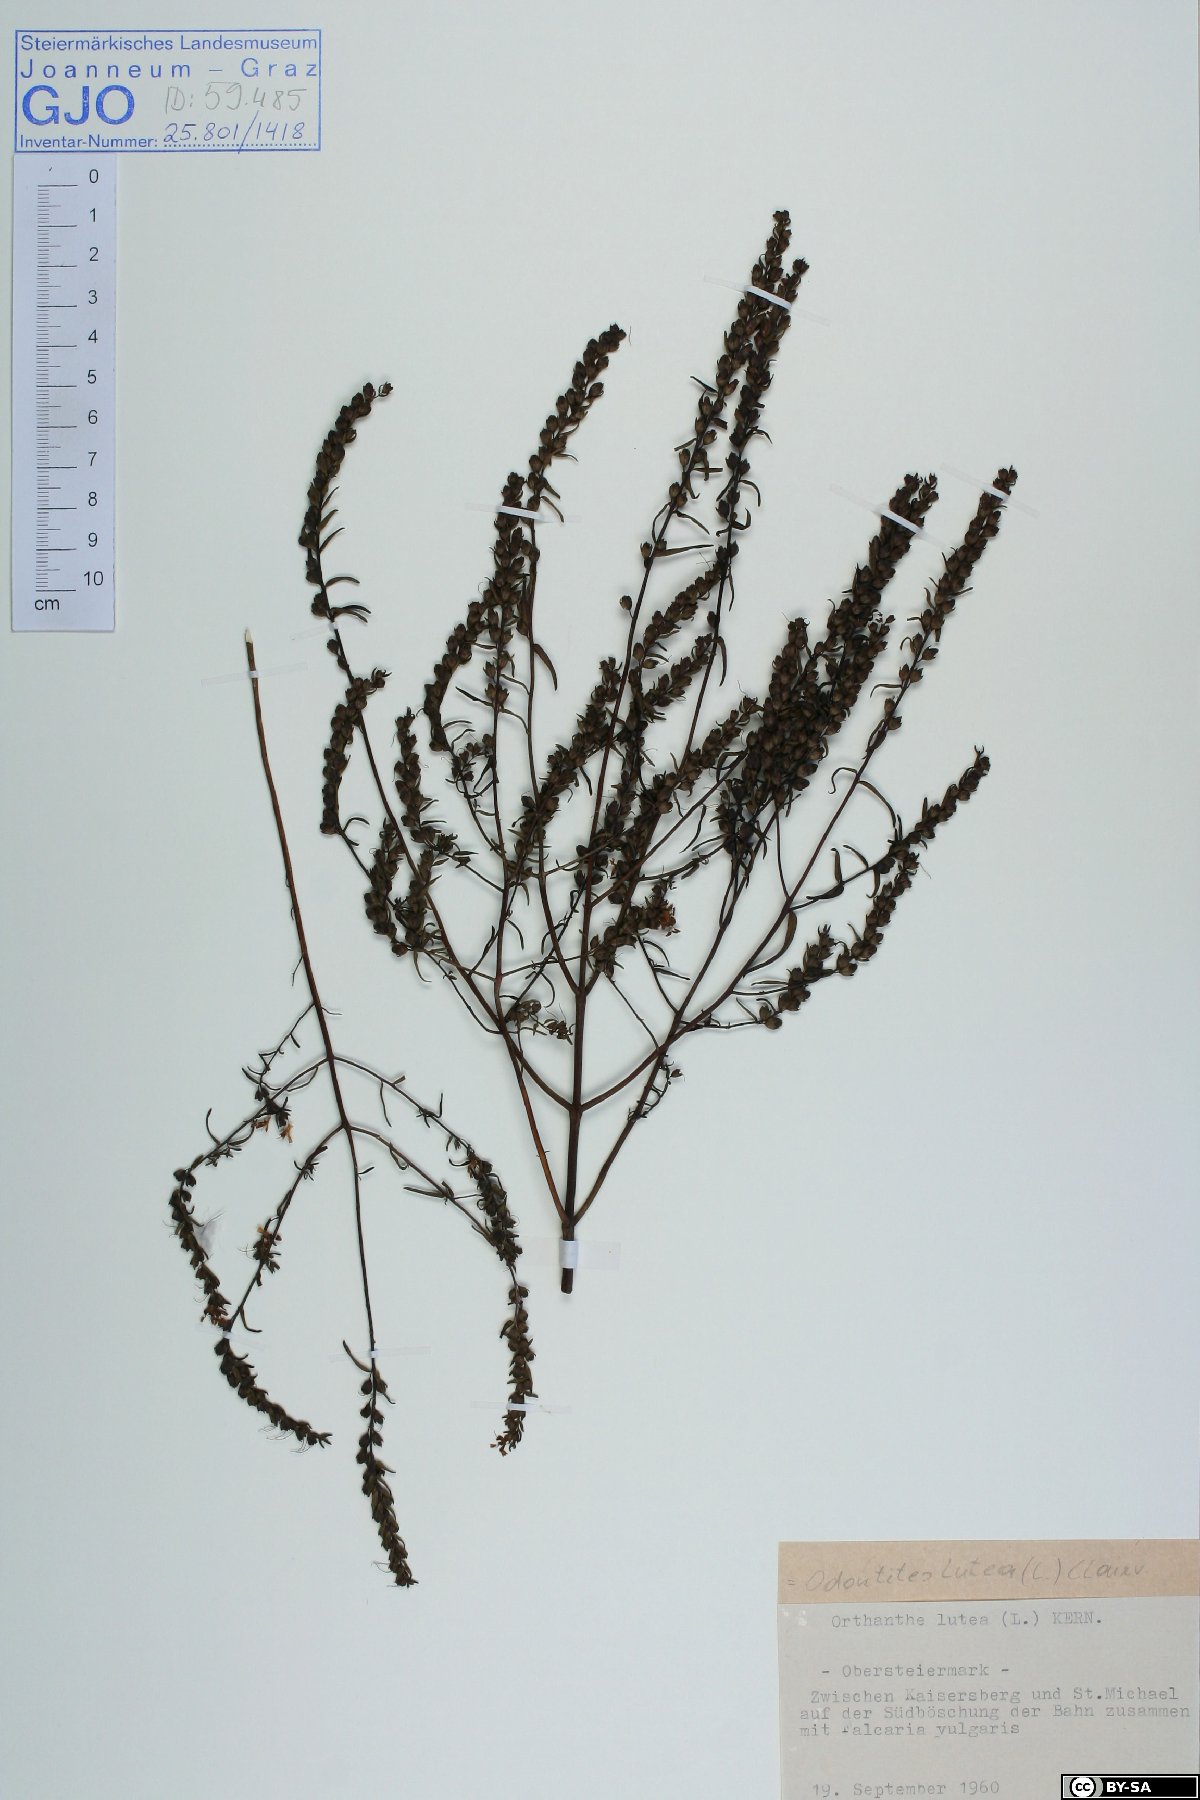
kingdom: Plantae
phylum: Tracheophyta
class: Magnoliopsida
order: Lamiales
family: Orobanchaceae
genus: Odontites
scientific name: Odontites luteus
